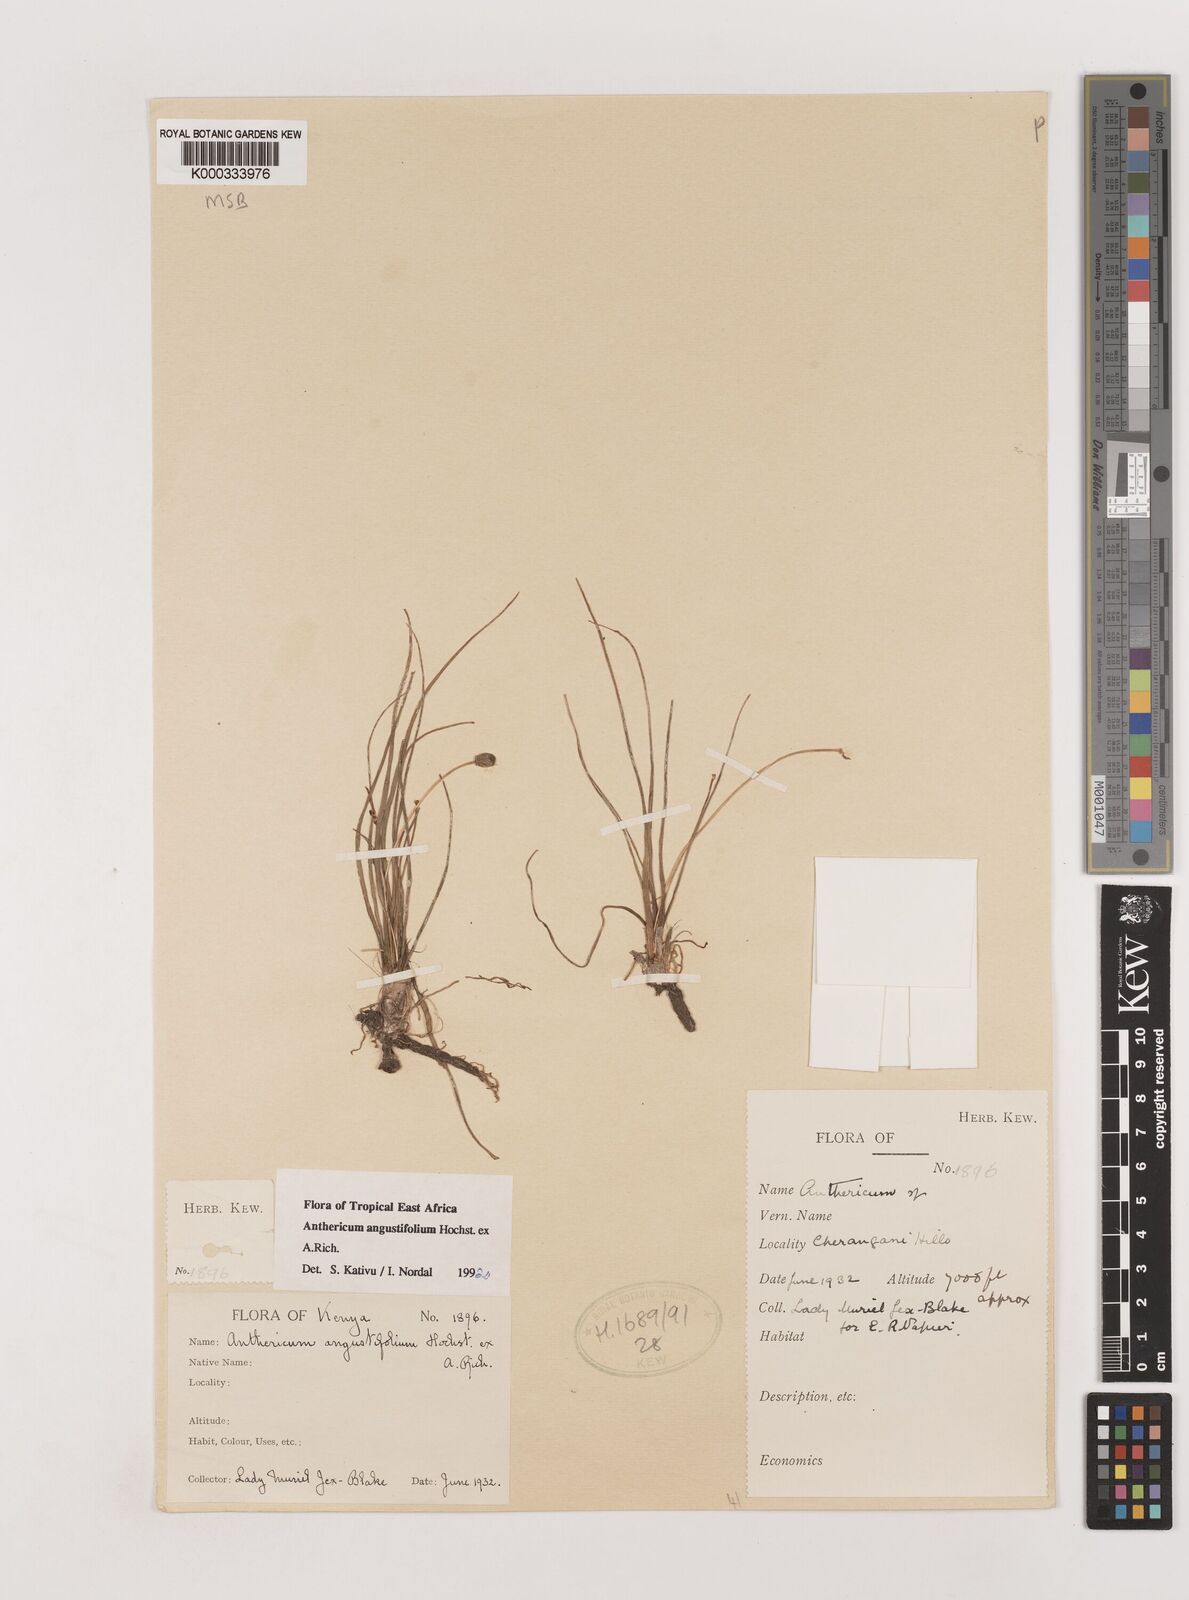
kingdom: Plantae
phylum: Tracheophyta
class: Liliopsida
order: Asparagales
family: Asparagaceae
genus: Anthericum
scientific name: Anthericum angustifolium
